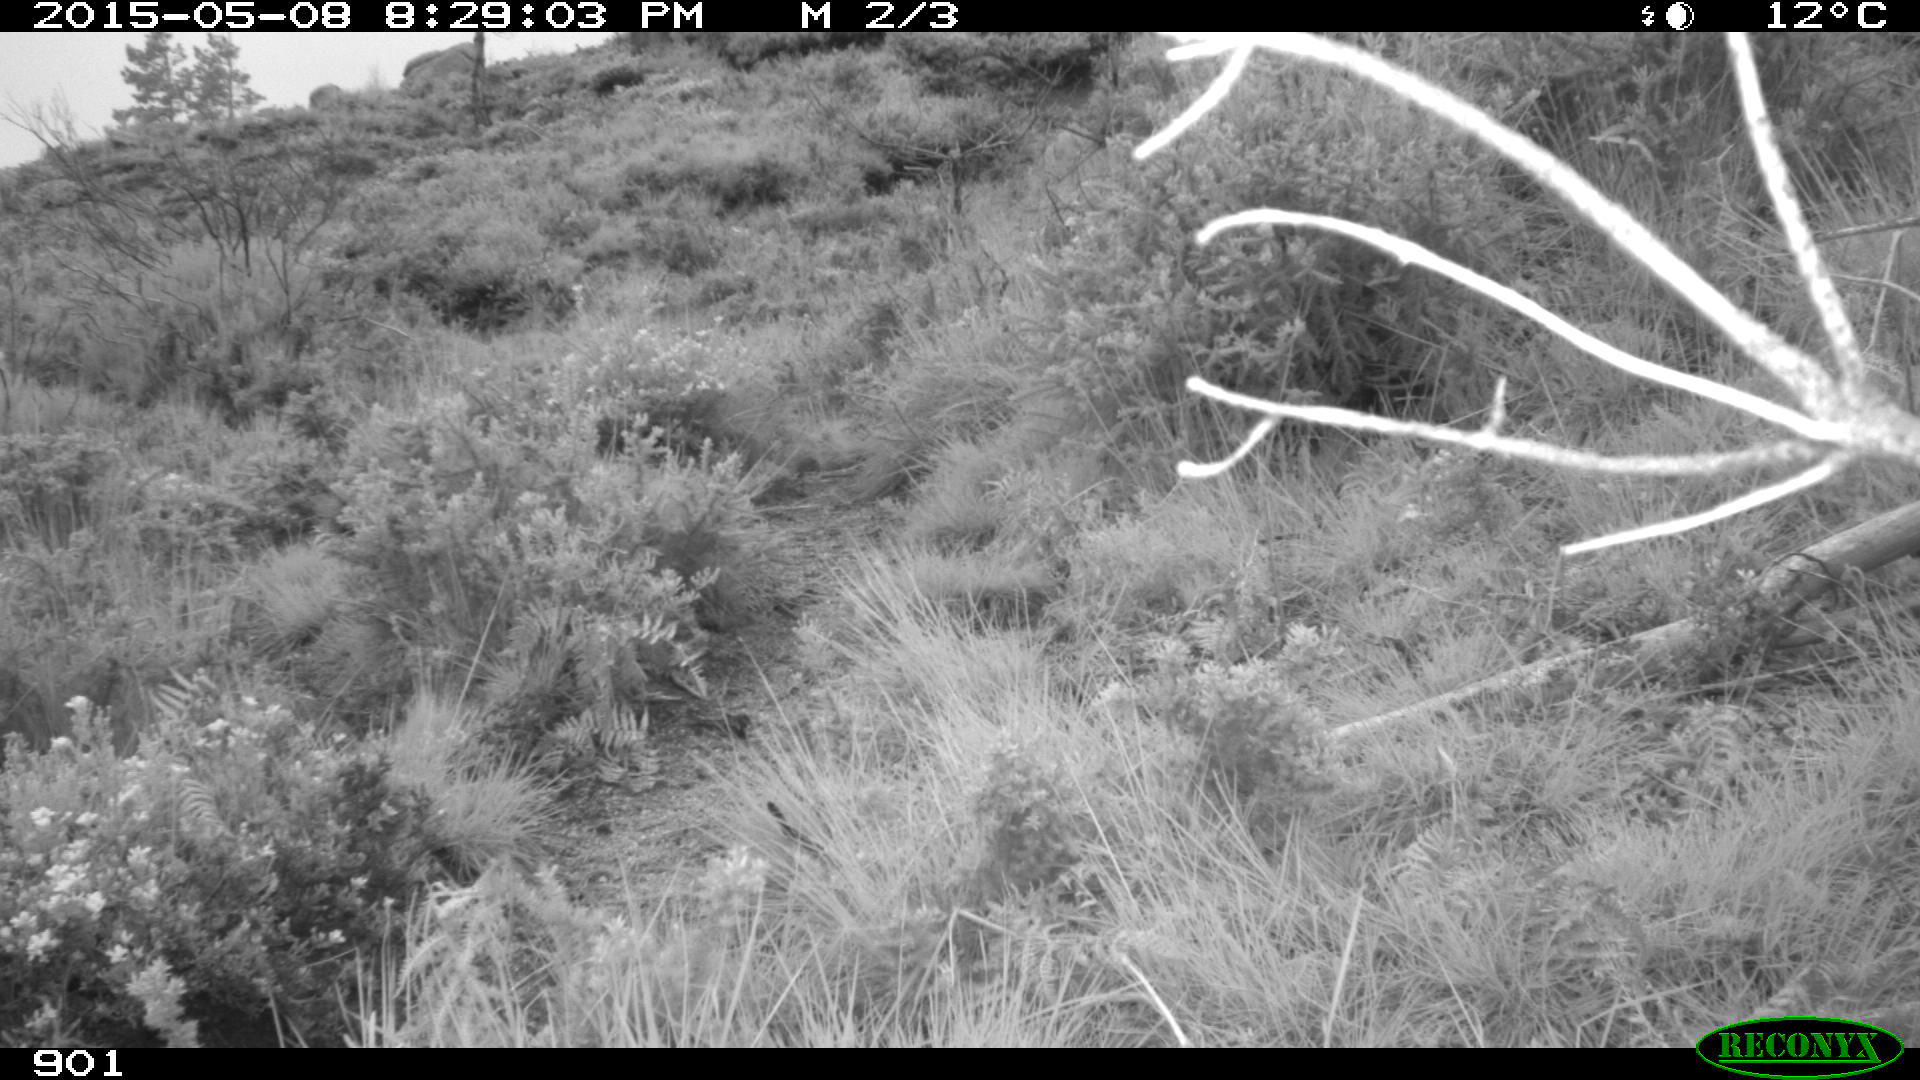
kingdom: Animalia
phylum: Chordata
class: Mammalia
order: Carnivora
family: Canidae
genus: Vulpes
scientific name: Vulpes vulpes
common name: Red fox
